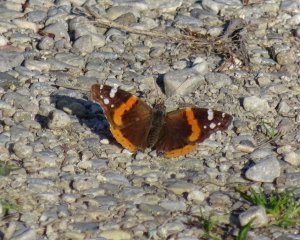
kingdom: Animalia
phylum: Arthropoda
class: Insecta
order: Lepidoptera
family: Nymphalidae
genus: Vanessa
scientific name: Vanessa atalanta
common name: Red Admiral
